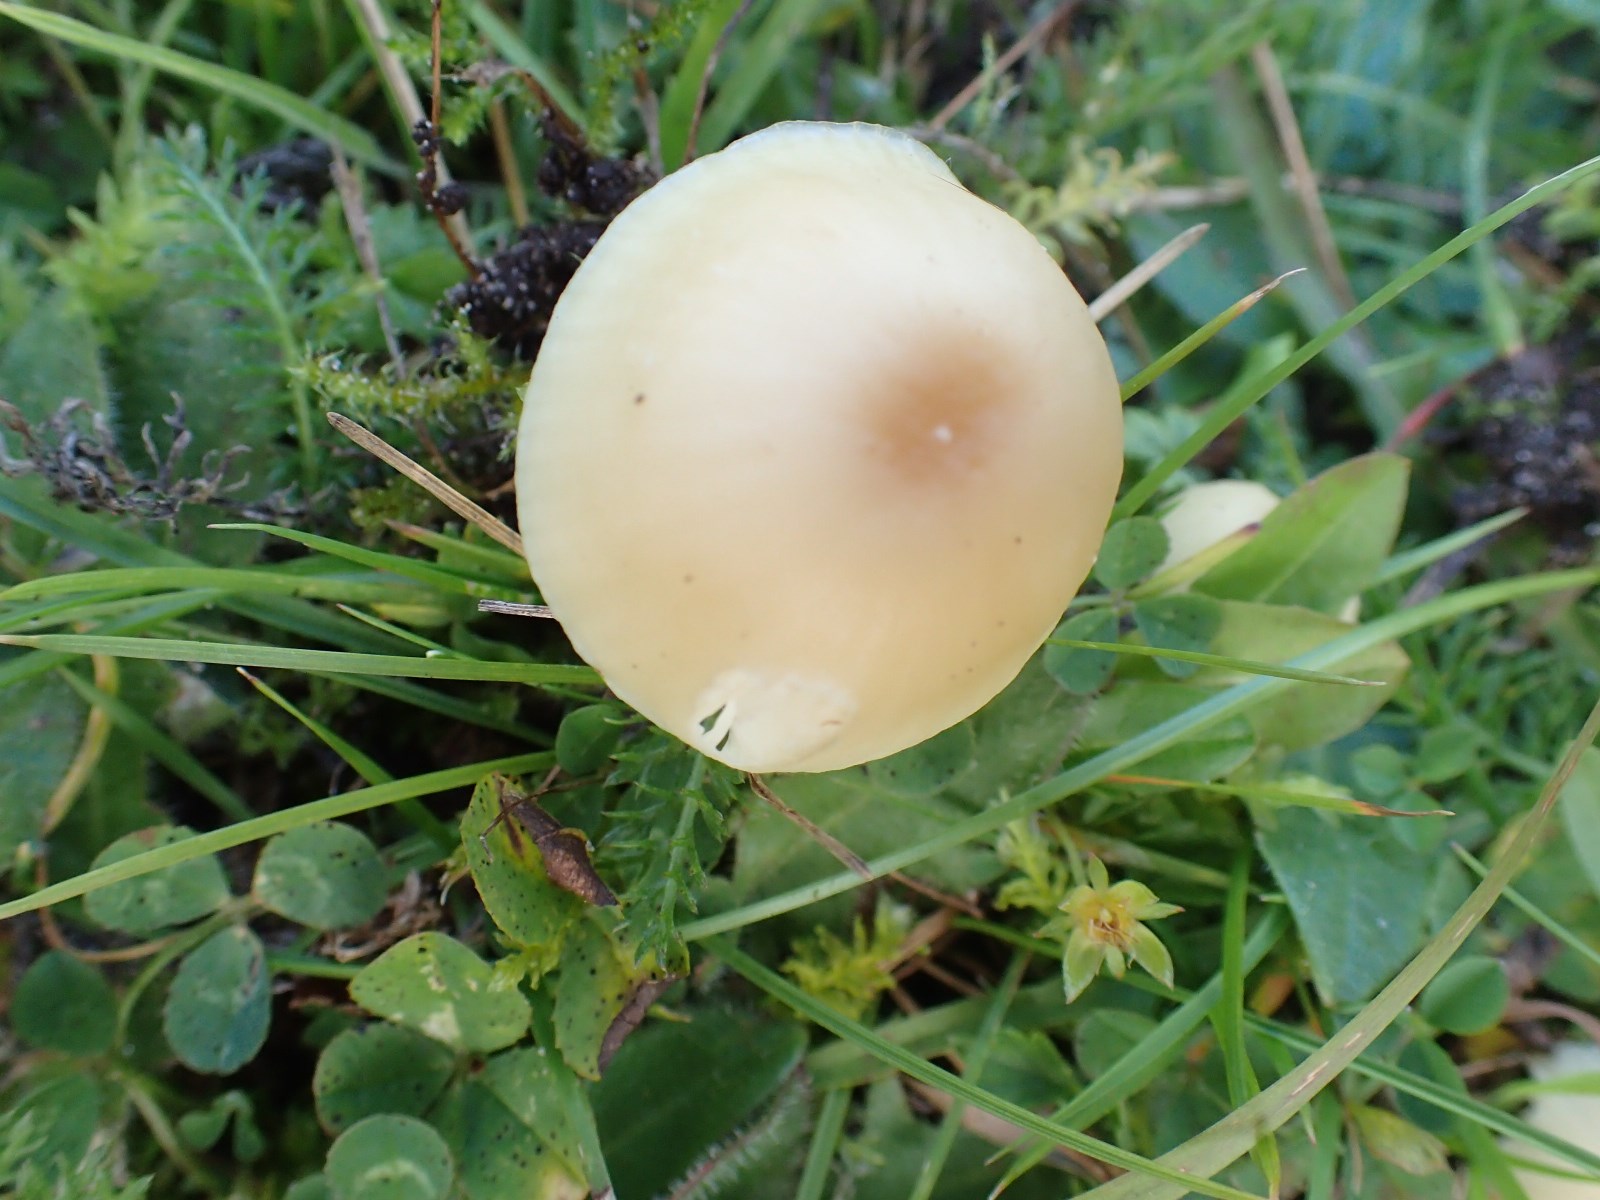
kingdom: Fungi
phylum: Basidiomycota
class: Agaricomycetes
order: Agaricales
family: Hygrophoraceae
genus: Cuphophyllus
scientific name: Cuphophyllus russocoriaceus
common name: ruslæder-vokshat
